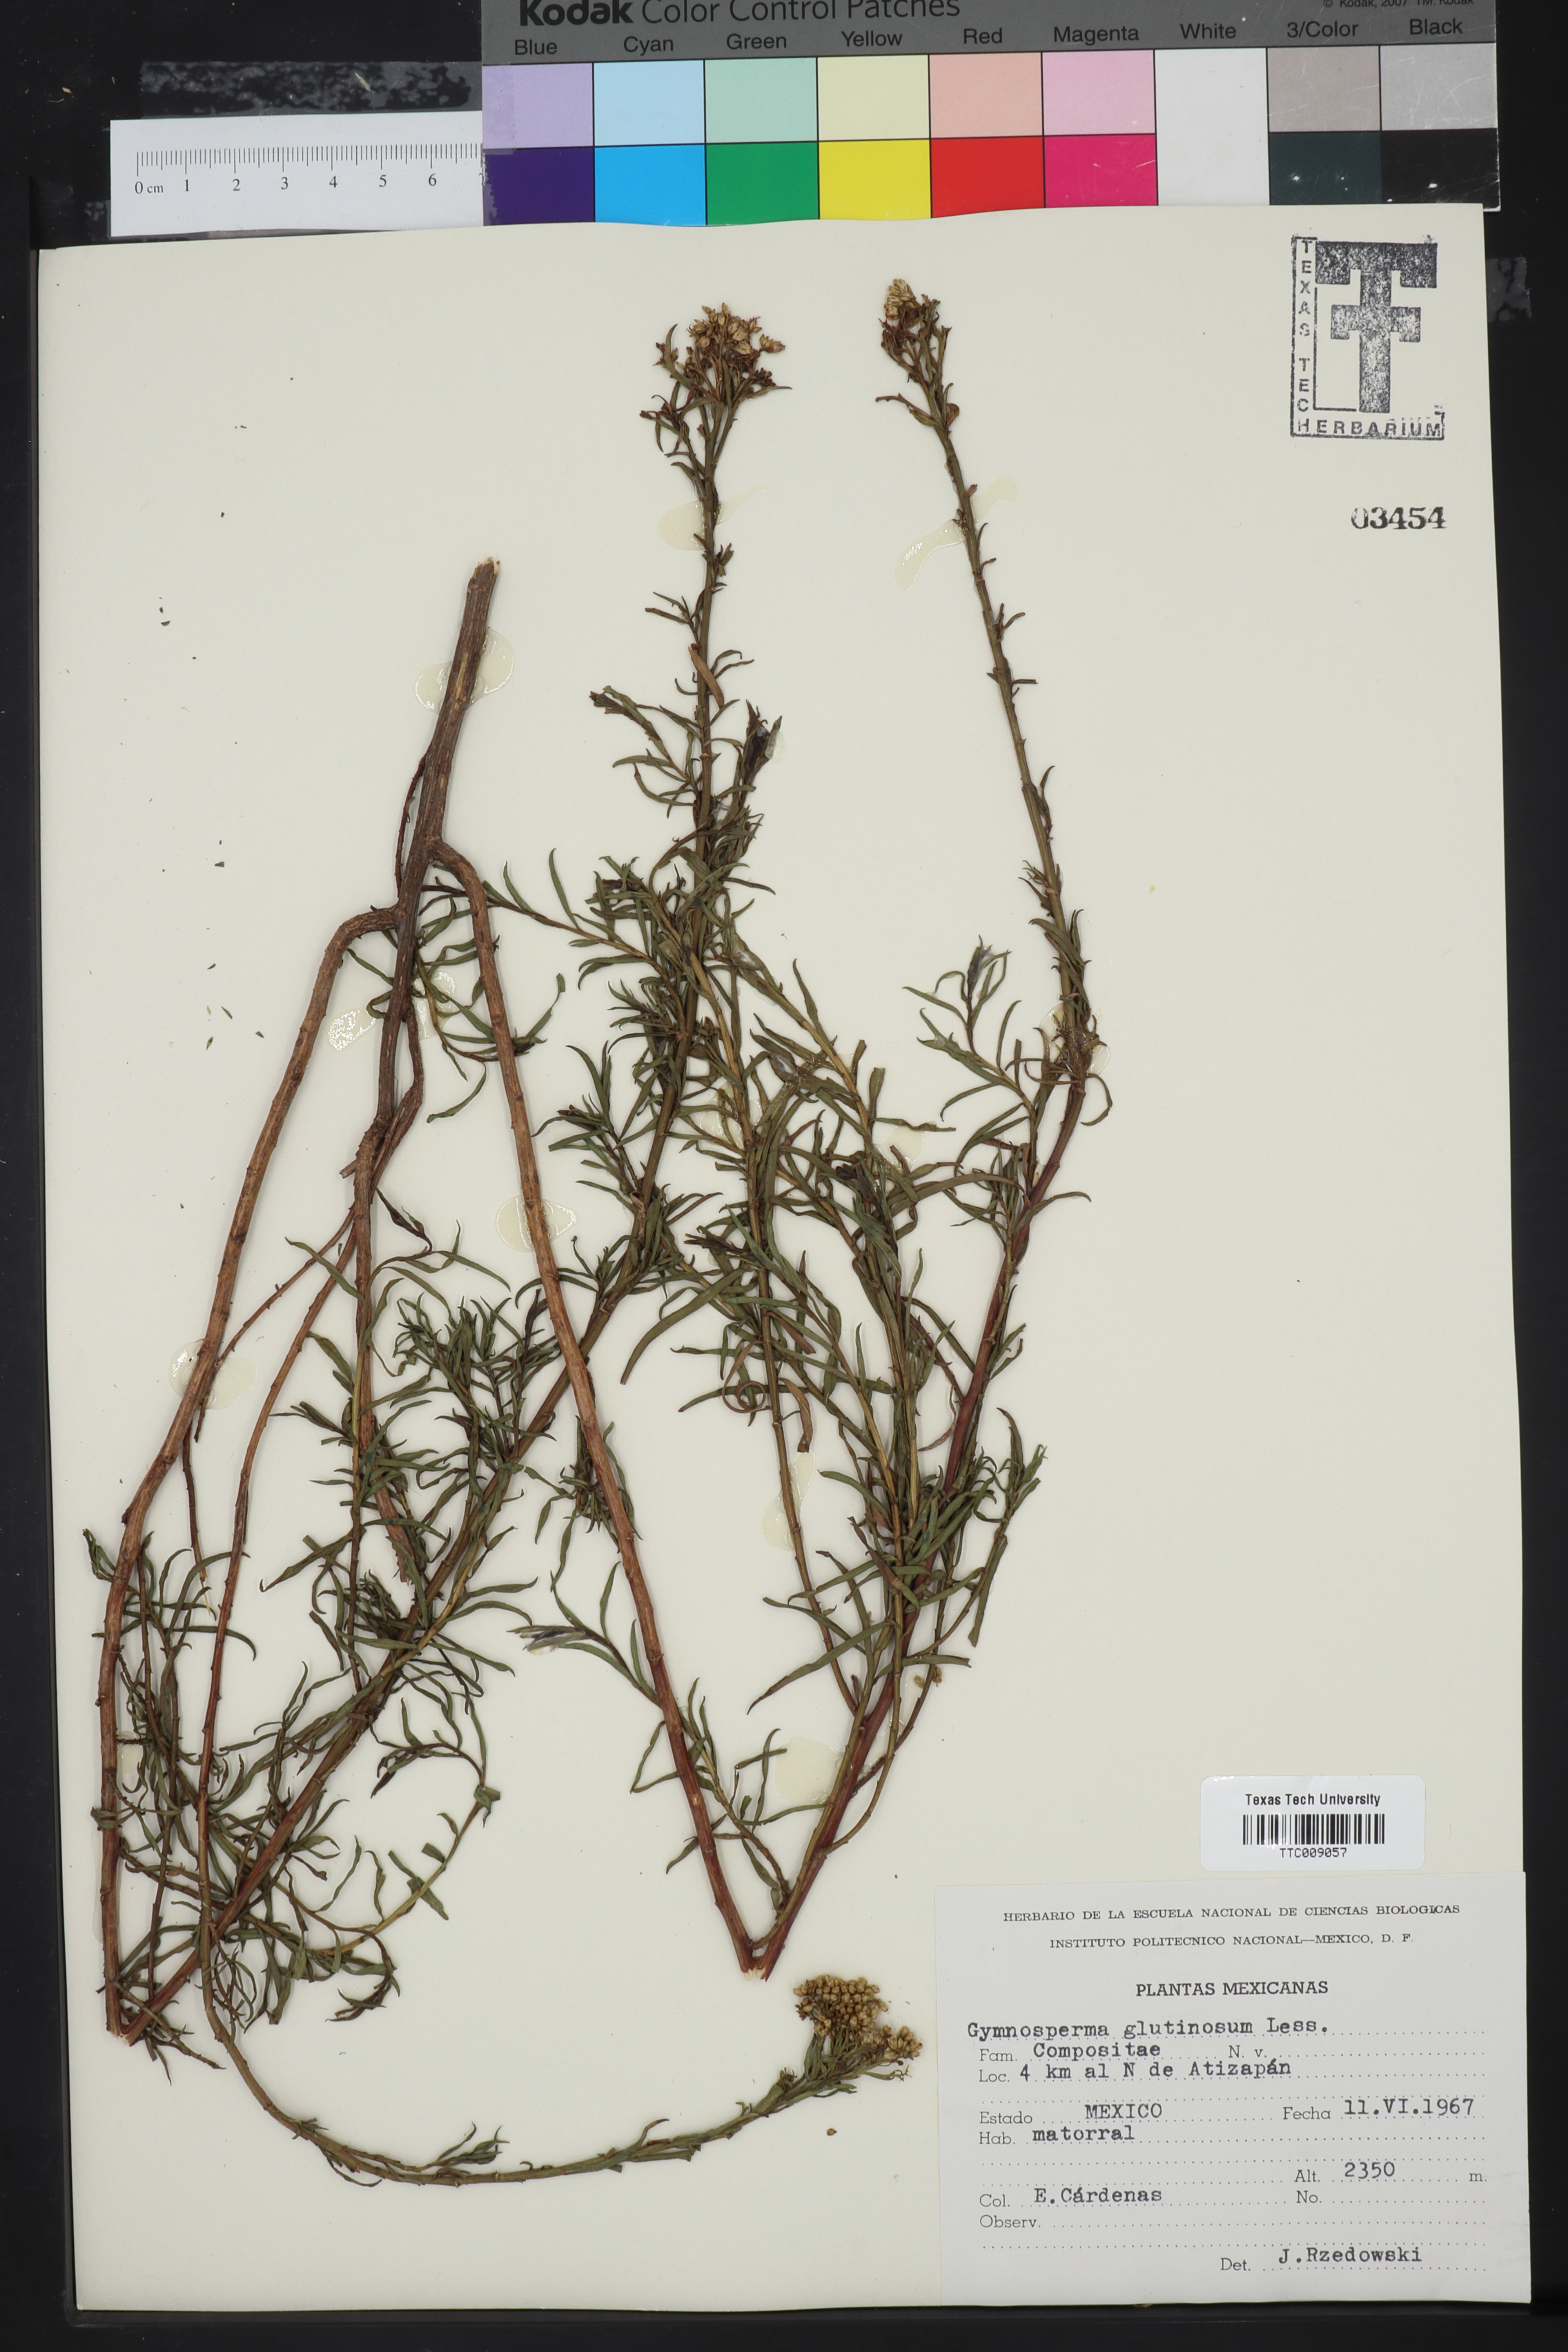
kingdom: Plantae
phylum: Tracheophyta
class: Magnoliopsida
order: Asterales
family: Asteraceae
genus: Gymnosperma
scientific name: Gymnosperma glutinosum
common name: Gumhead
